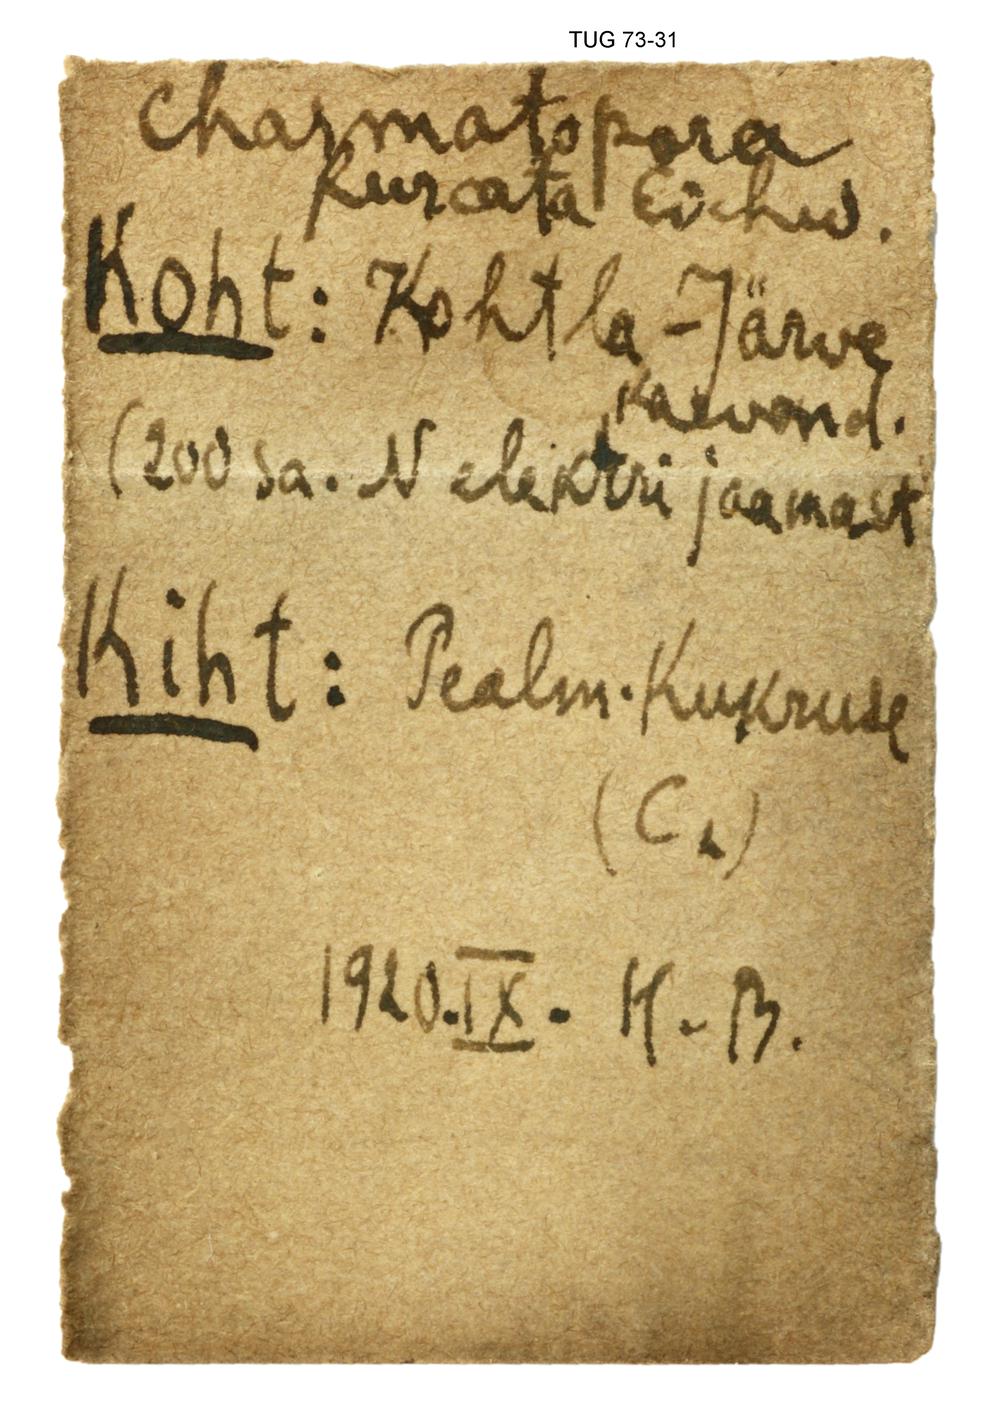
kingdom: Animalia
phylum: Bryozoa
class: Stenolaemata
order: Fenestrida
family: Chasmatoporidae
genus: Chasmatopora
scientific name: Chasmatopora furcata
